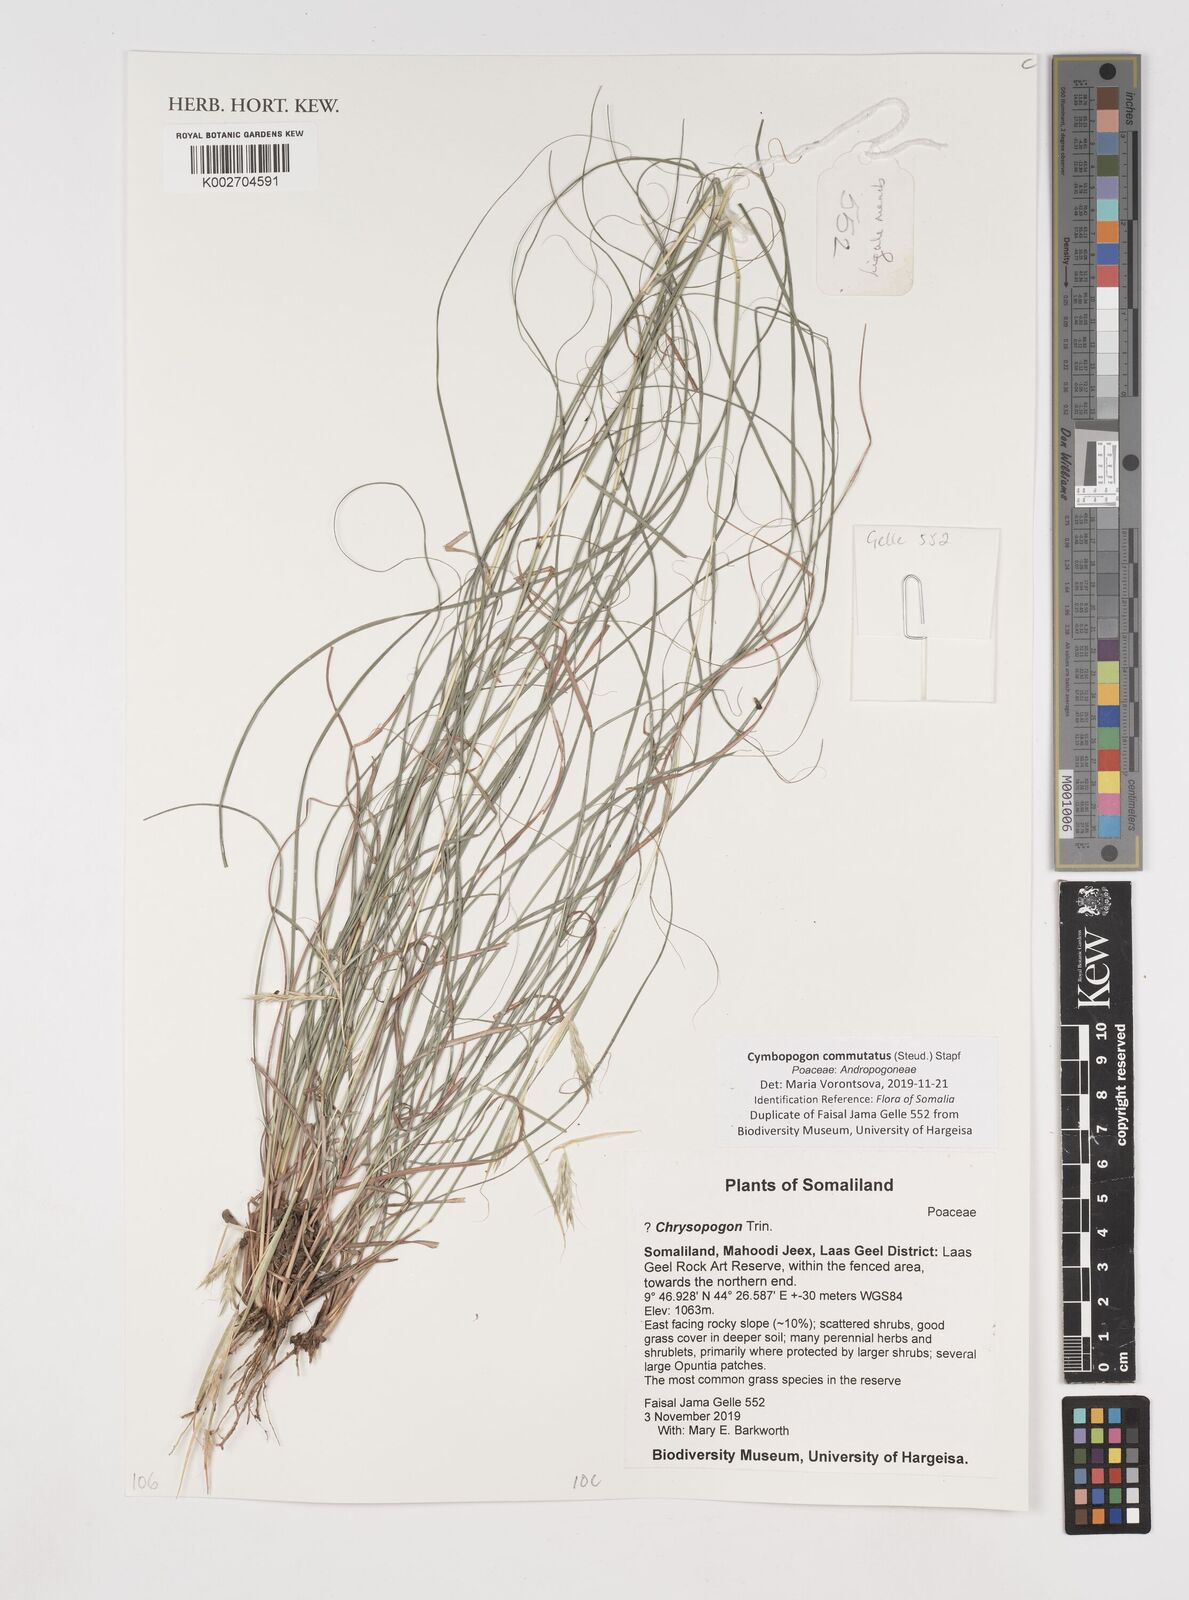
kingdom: Plantae
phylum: Tracheophyta
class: Liliopsida
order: Poales
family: Poaceae
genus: Cymbopogon
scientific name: Cymbopogon commutatus
